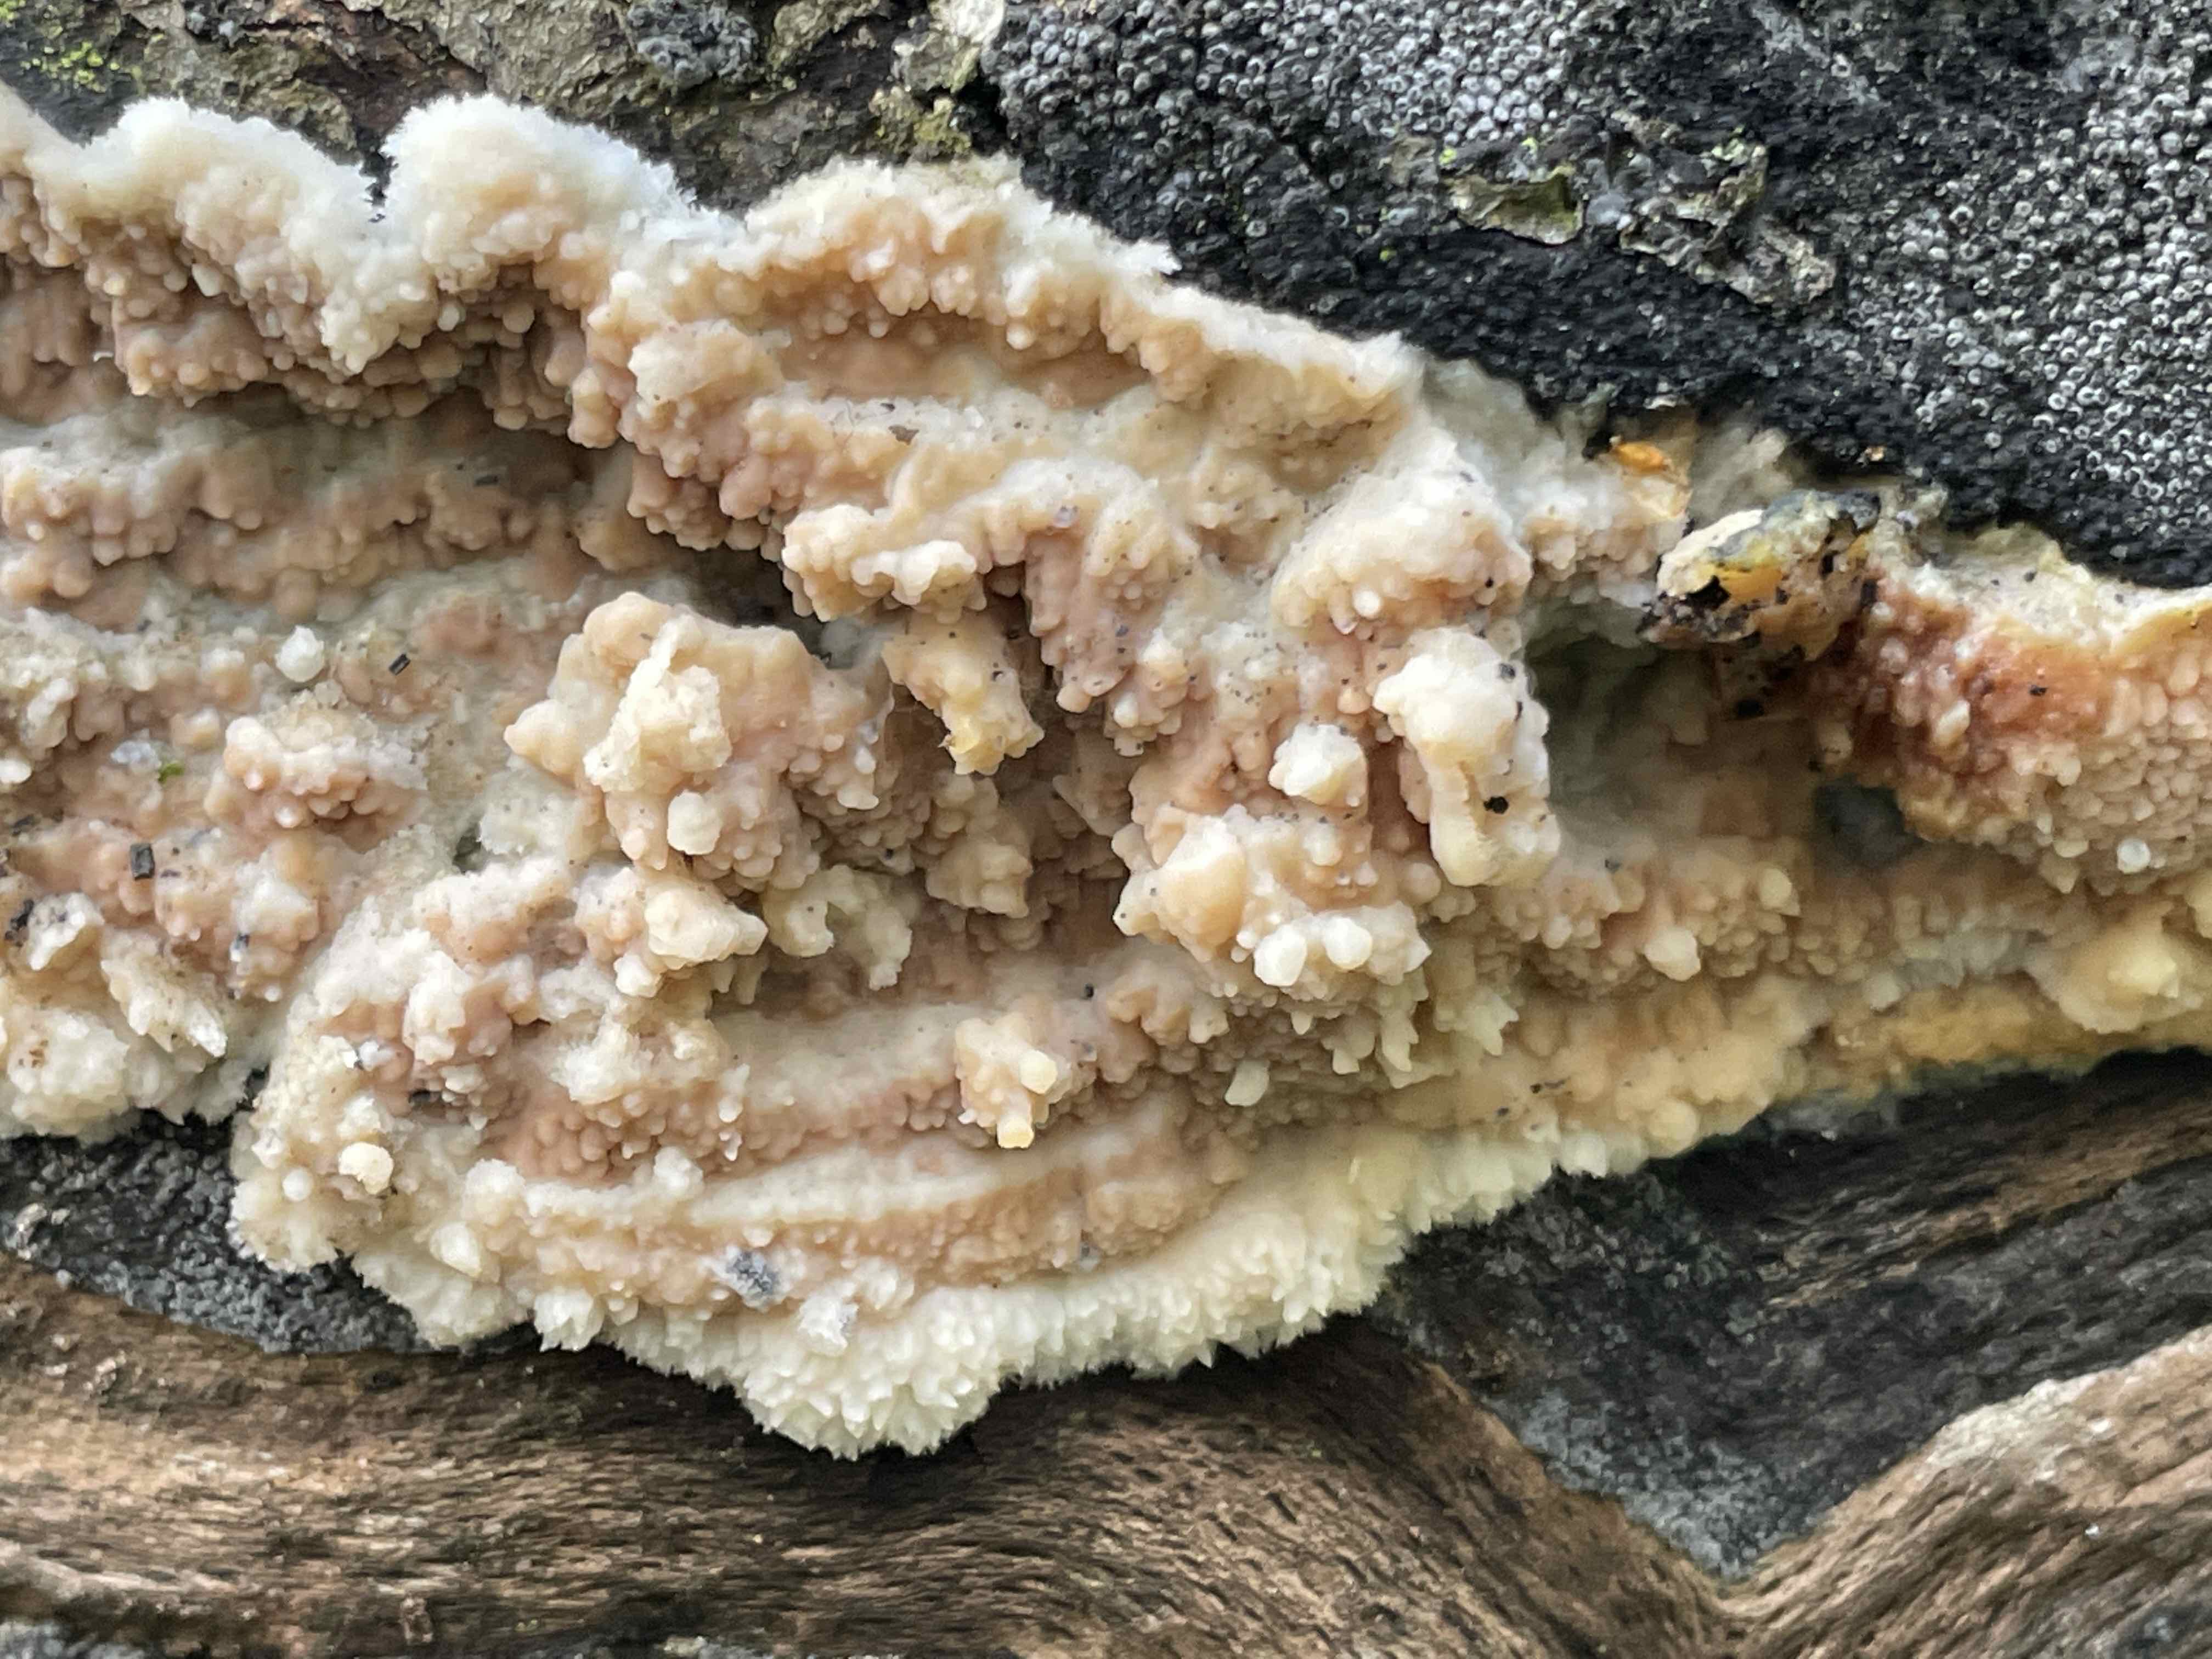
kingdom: Fungi
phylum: Basidiomycota
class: Agaricomycetes
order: Polyporales
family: Meruliaceae
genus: Phlebia
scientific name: Phlebia radiata
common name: stråle-åresvamp
